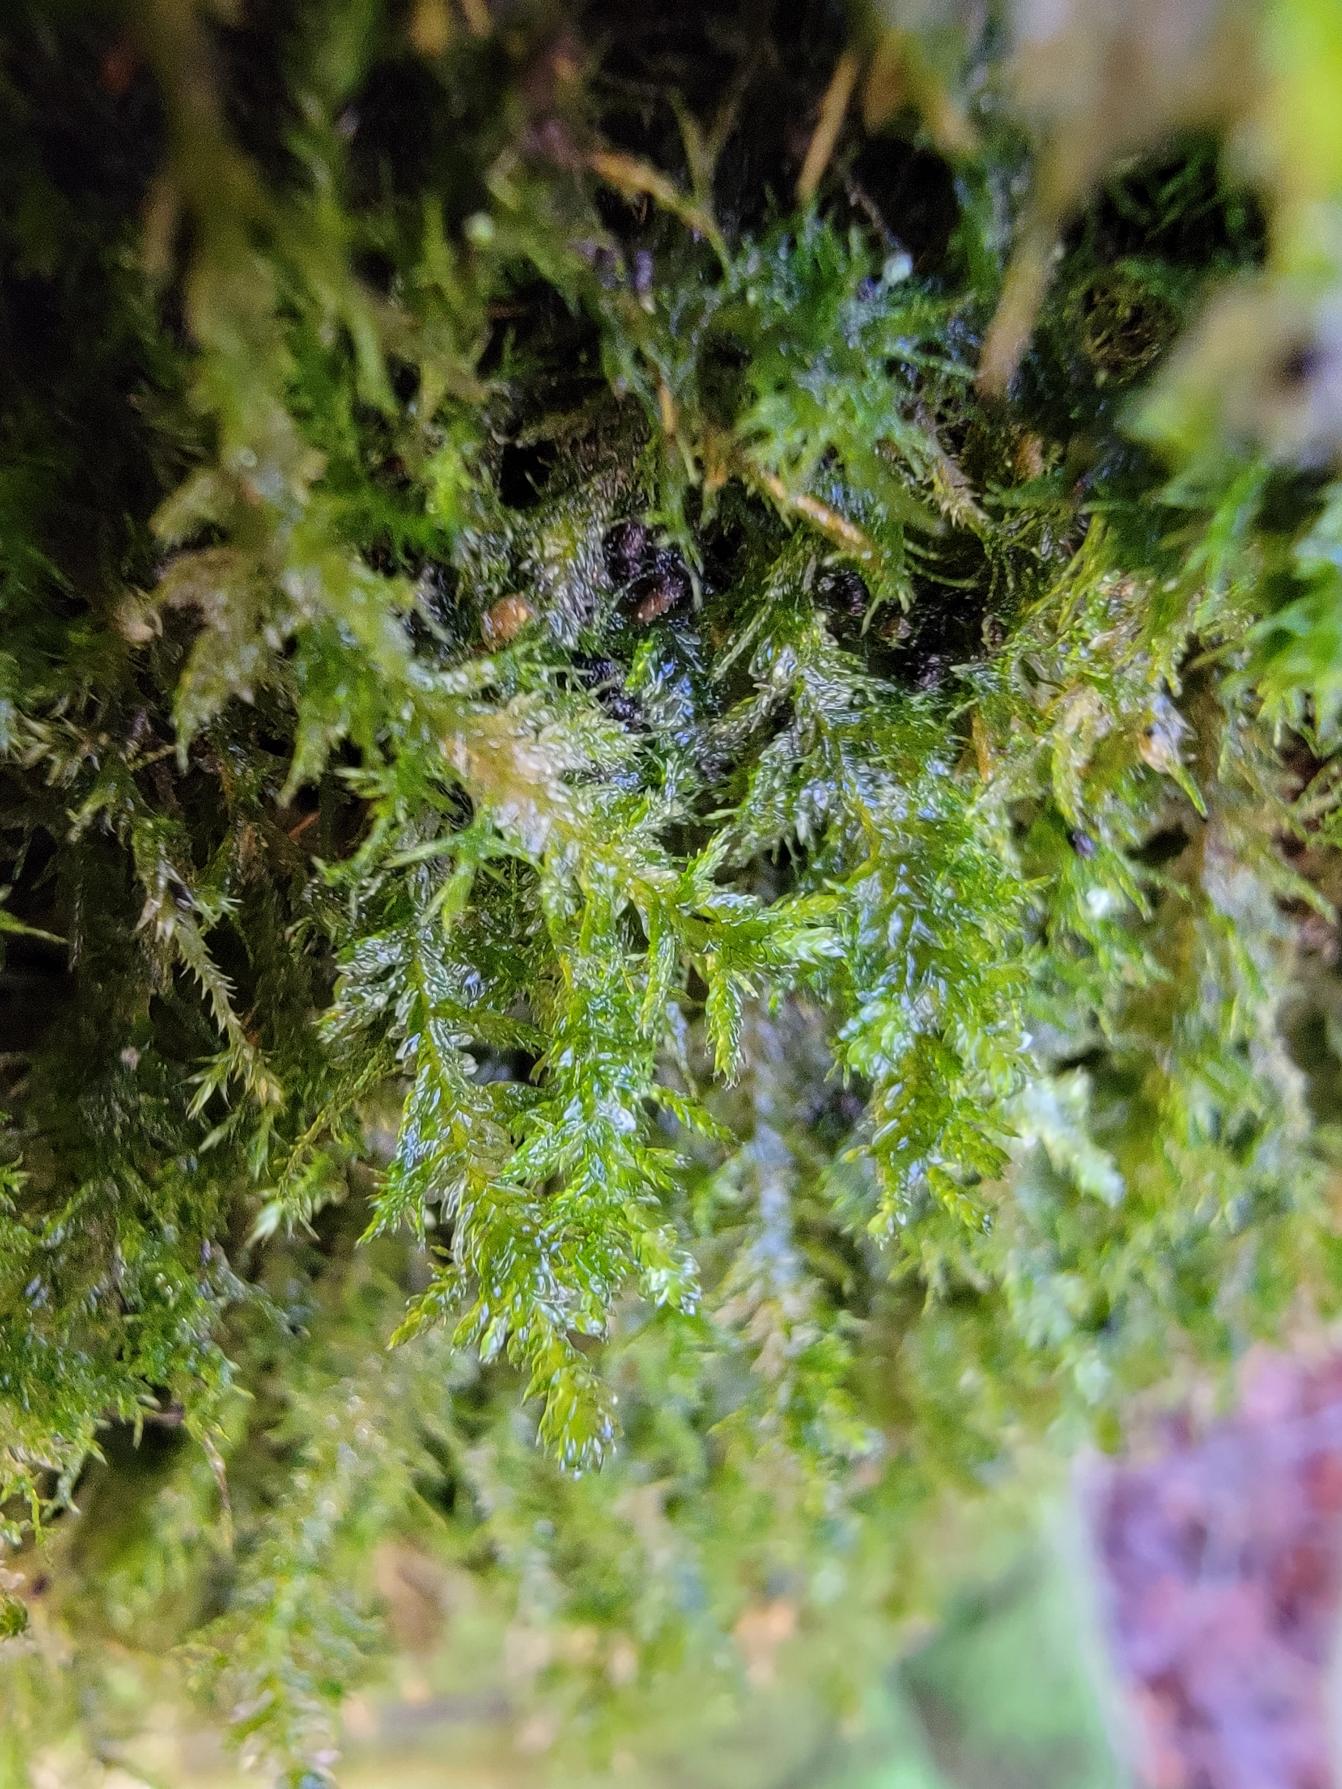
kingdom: Plantae
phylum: Bryophyta
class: Bryopsida
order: Hypnales
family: Neckeraceae
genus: Neckera
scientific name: Neckera pumila
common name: Lav fladmos
